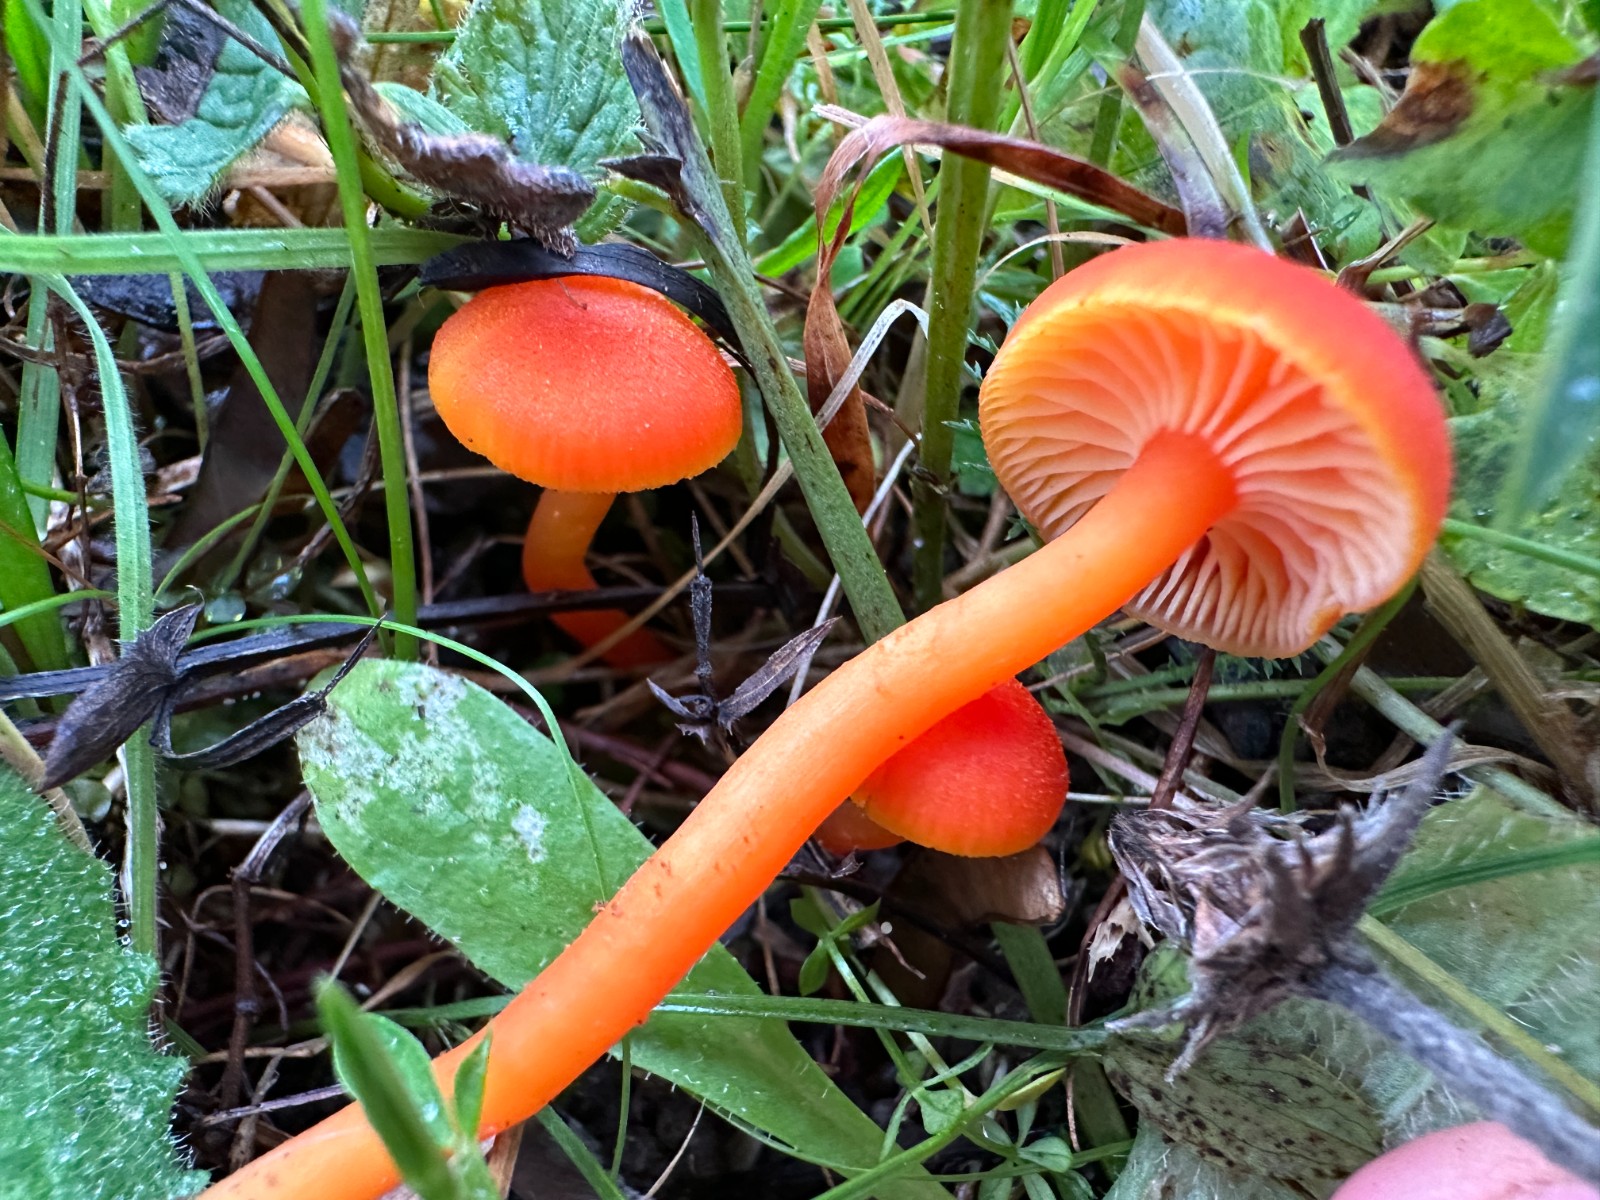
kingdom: Fungi
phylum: Basidiomycota
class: Agaricomycetes
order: Agaricales
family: Hygrophoraceae
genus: Hygrocybe
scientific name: Hygrocybe miniata
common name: mønje-vokshat
